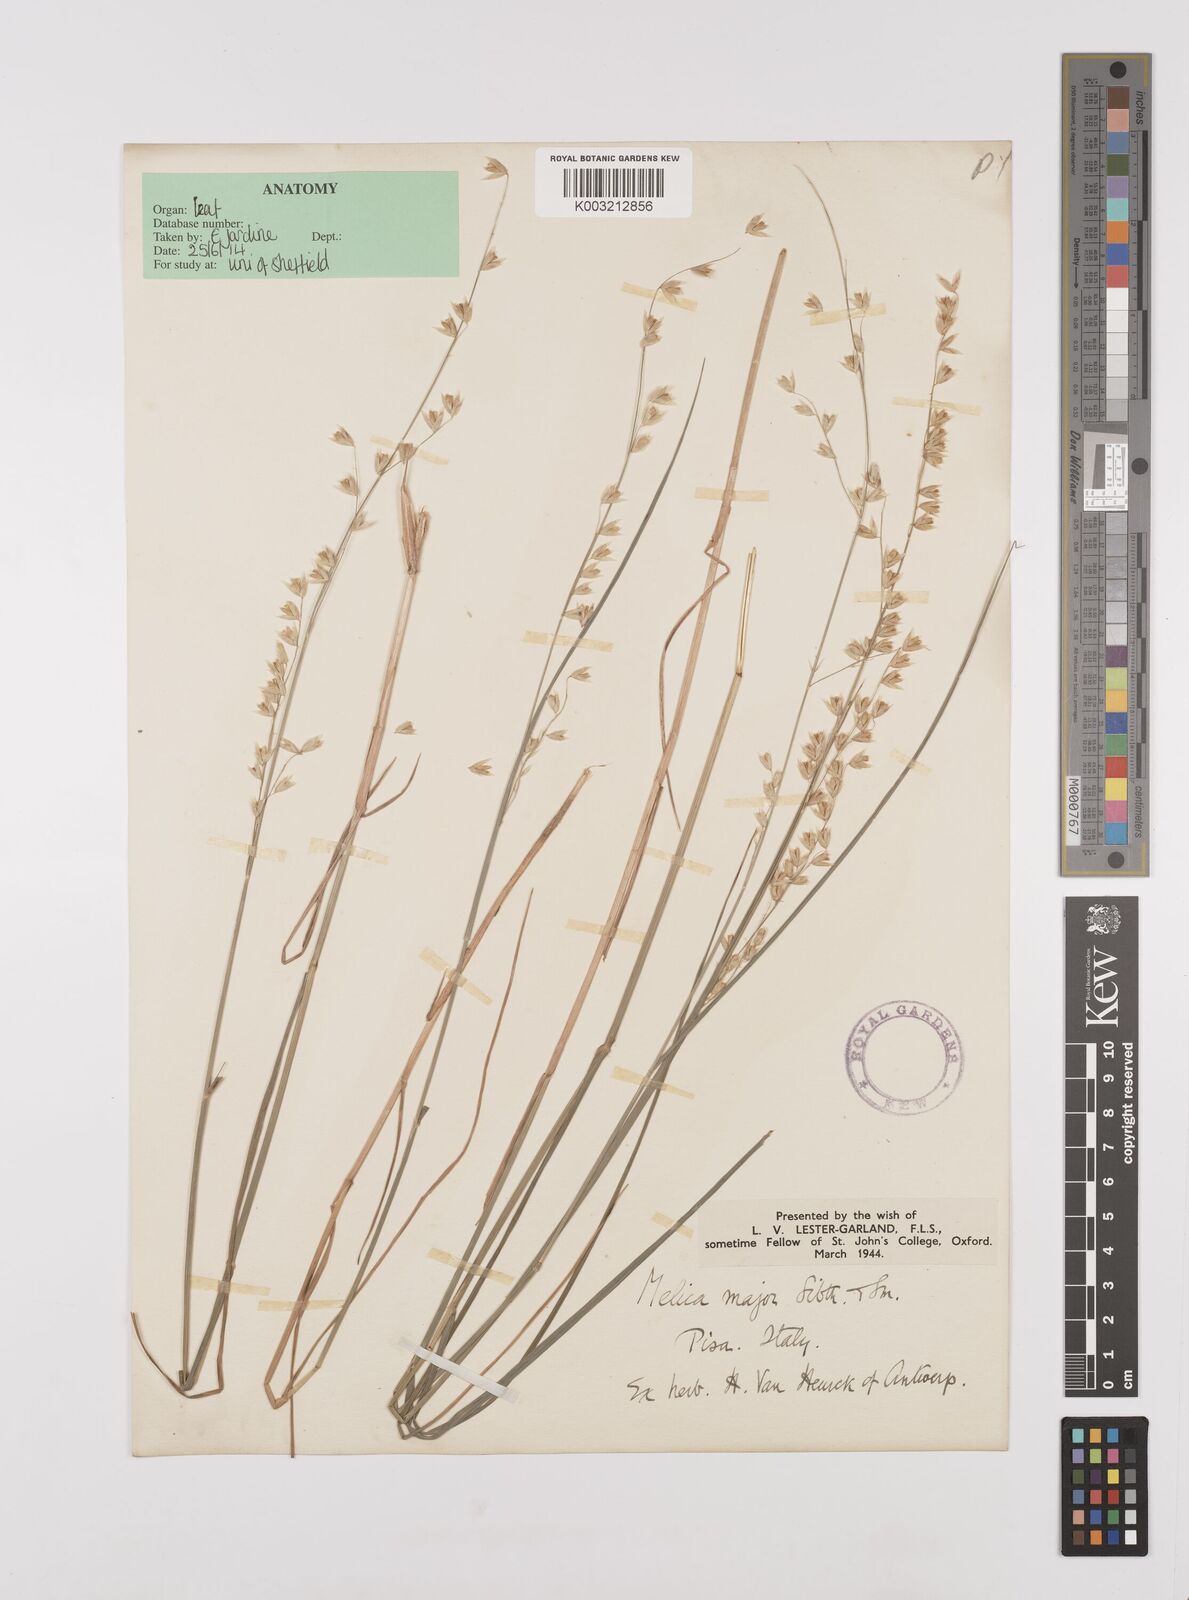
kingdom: Plantae
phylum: Tracheophyta
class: Liliopsida
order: Poales
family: Poaceae
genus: Melica
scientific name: Melica minuta
